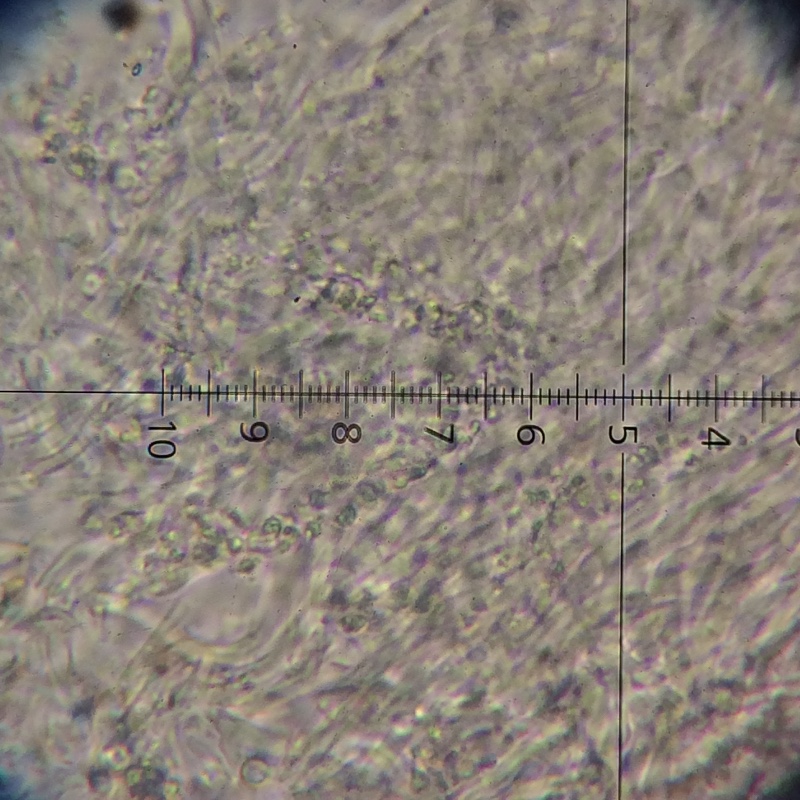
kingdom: Fungi
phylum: Basidiomycota
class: Agaricomycetes
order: Hymenochaetales
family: Schizoporaceae
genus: Xylodon
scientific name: Xylodon subtropicus
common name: labyrint-tandsvamp
